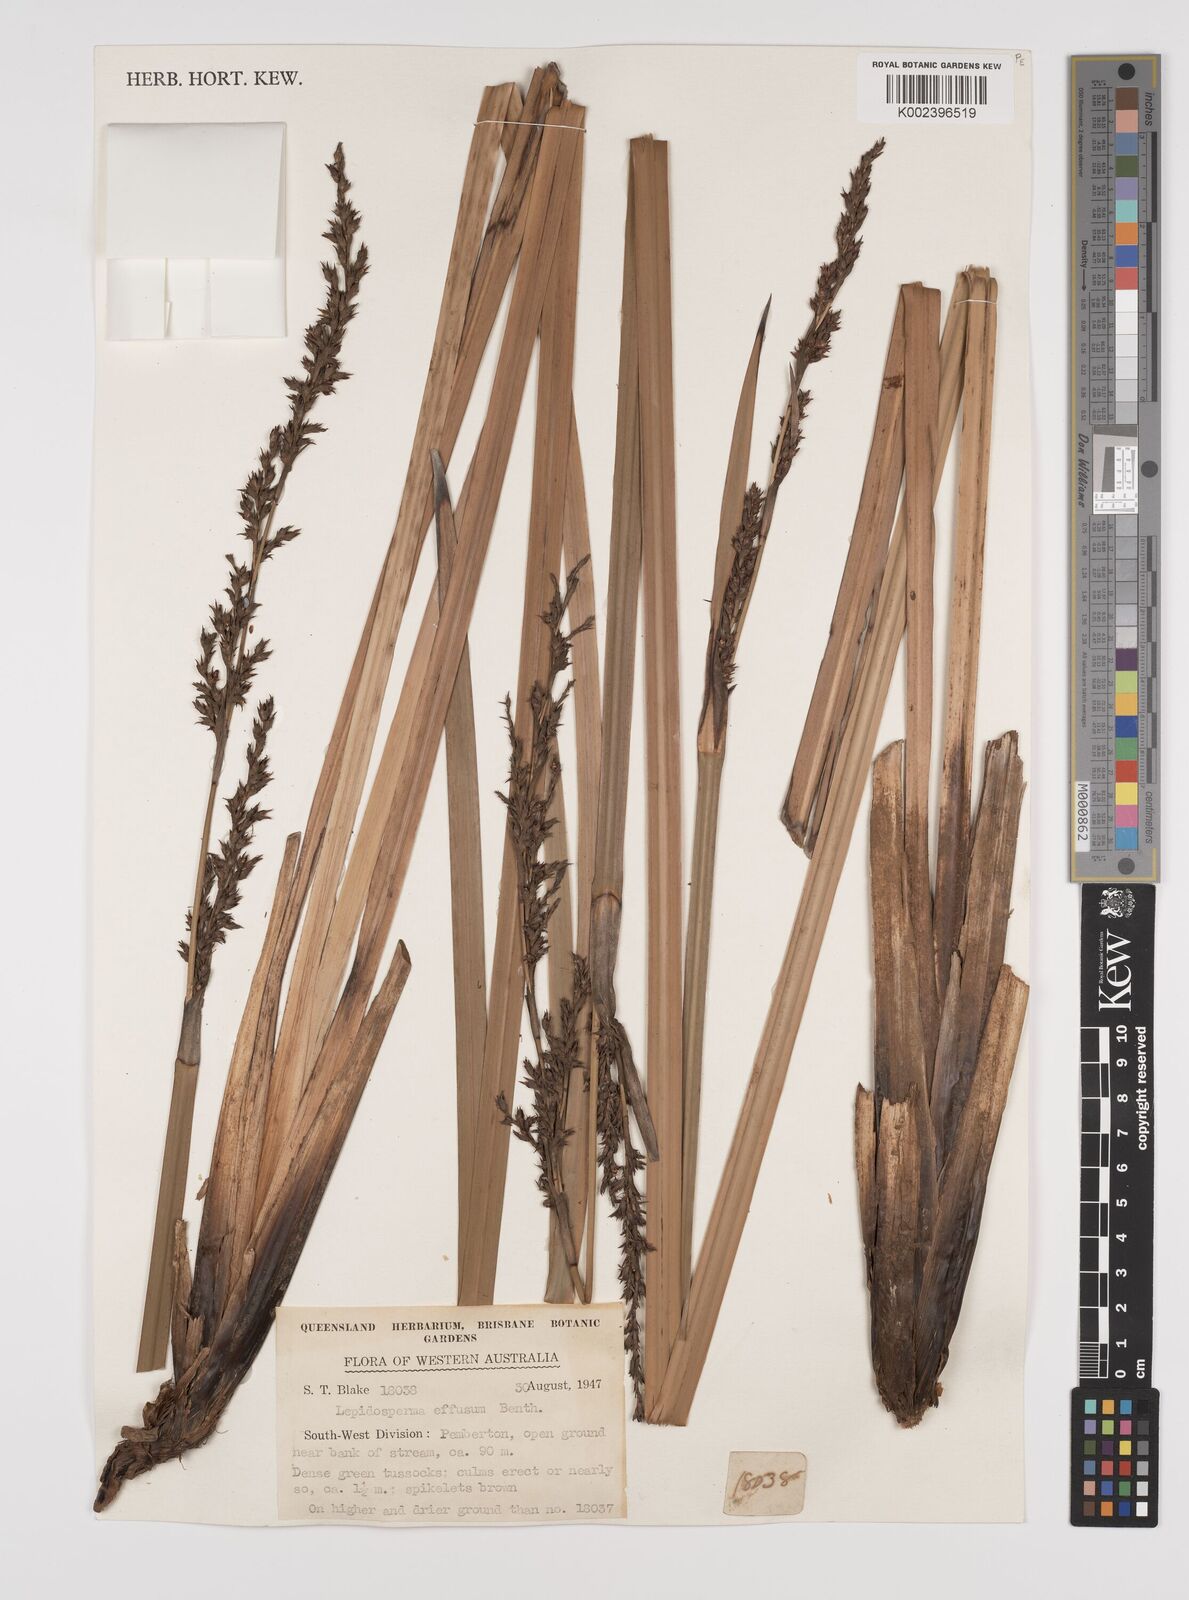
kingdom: Plantae
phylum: Tracheophyta
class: Liliopsida
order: Poales
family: Cyperaceae
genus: Lepidosperma
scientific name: Lepidosperma effusum
